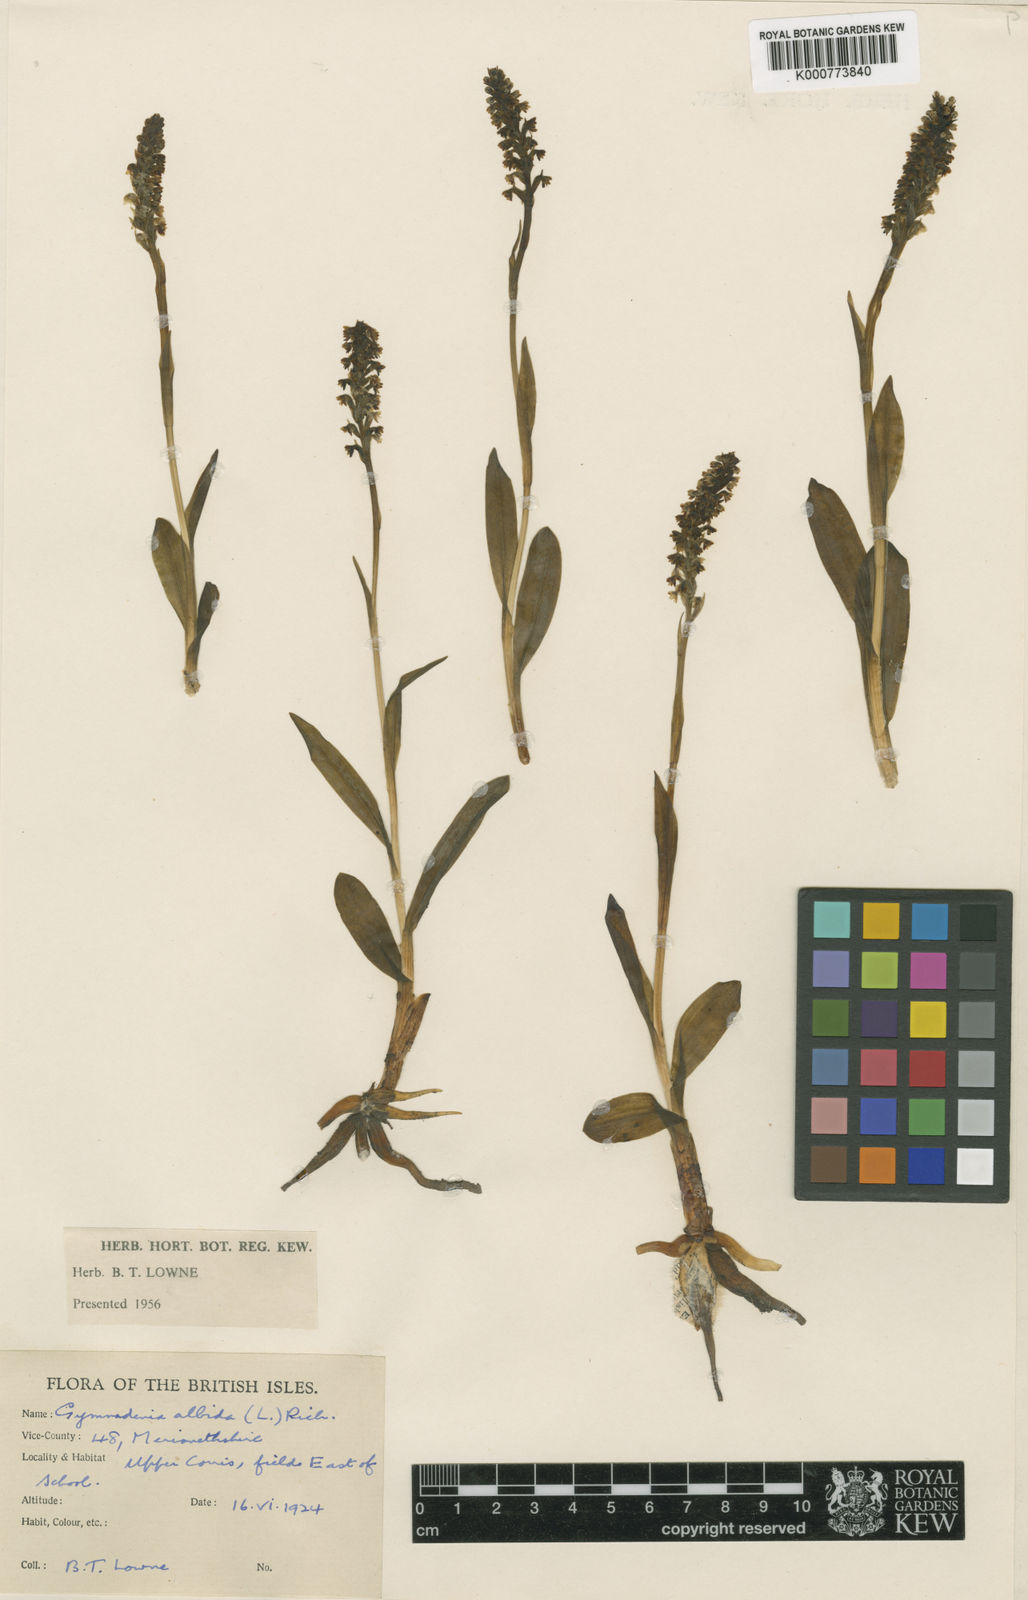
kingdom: Plantae
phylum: Tracheophyta
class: Liliopsida
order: Asparagales
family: Orchidaceae
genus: Pseudorchis
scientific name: Pseudorchis
